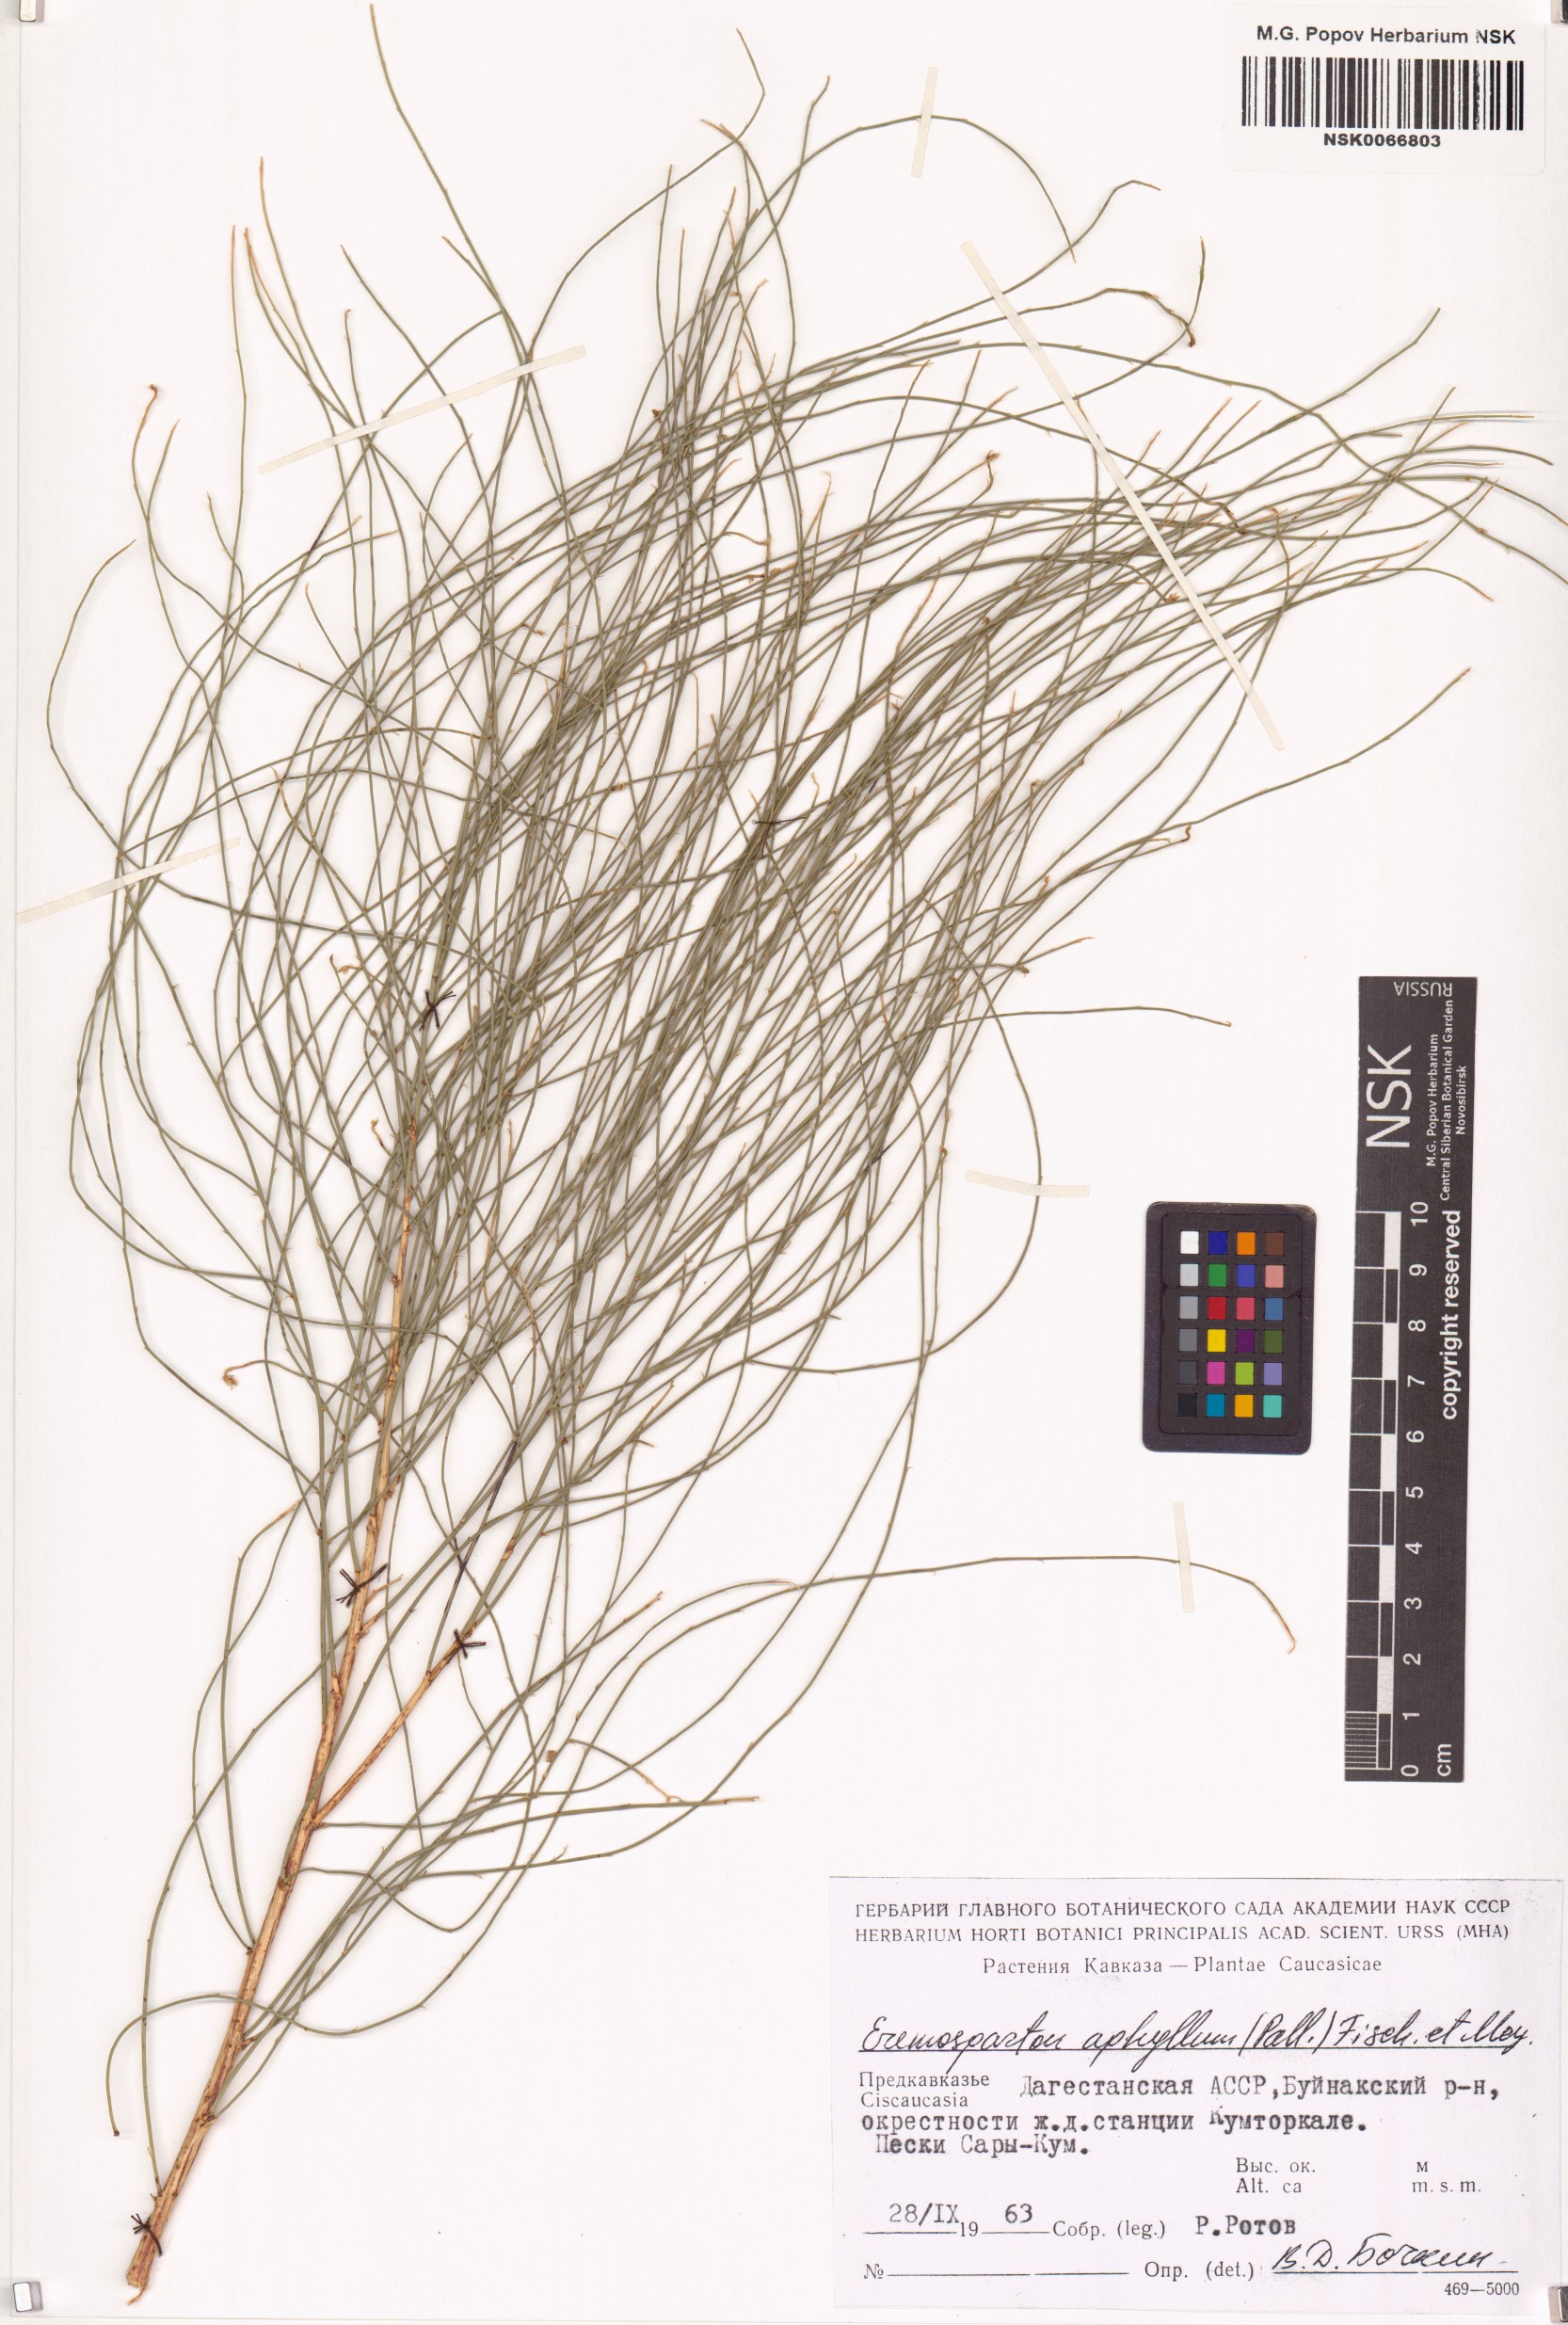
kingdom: Plantae
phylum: Tracheophyta
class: Magnoliopsida
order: Fabales
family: Fabaceae
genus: Eremosparton
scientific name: Eremosparton aphyllum
